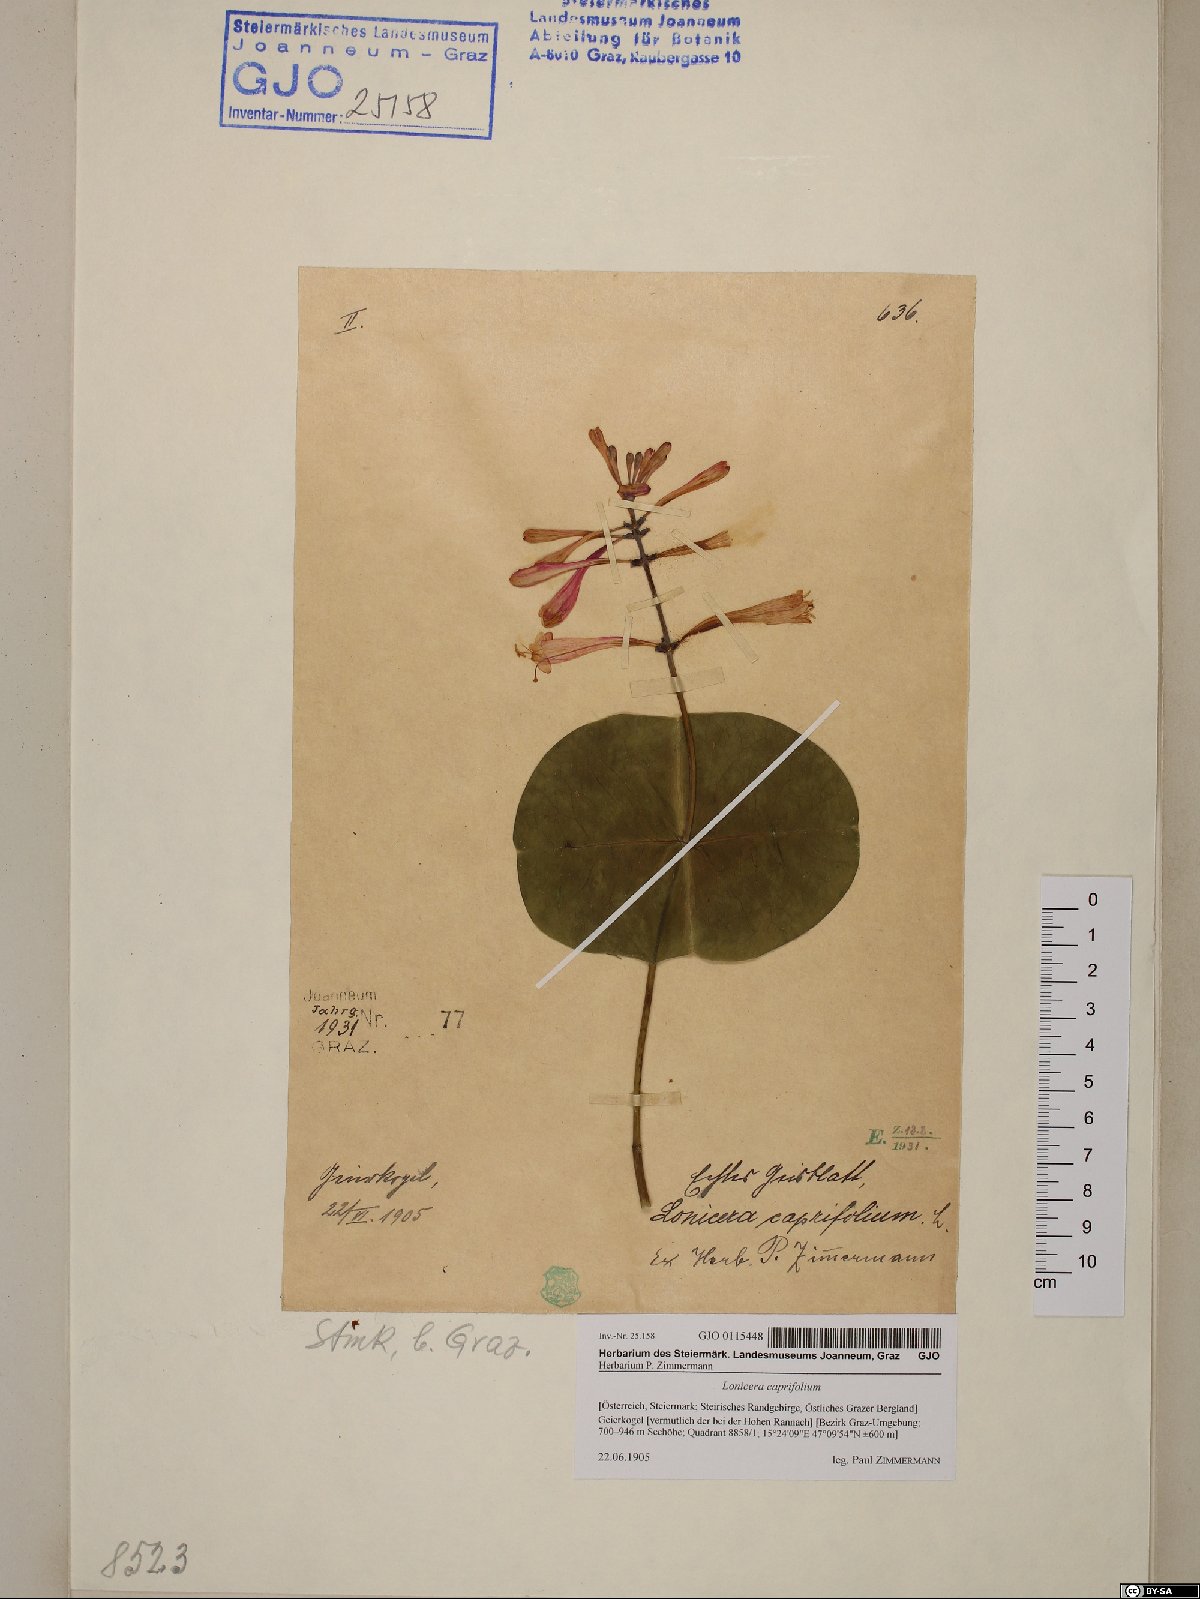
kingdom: Plantae
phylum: Tracheophyta
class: Magnoliopsida
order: Dipsacales
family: Caprifoliaceae
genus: Lonicera
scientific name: Lonicera caprifolium
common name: Perfoliate honeysuckle
